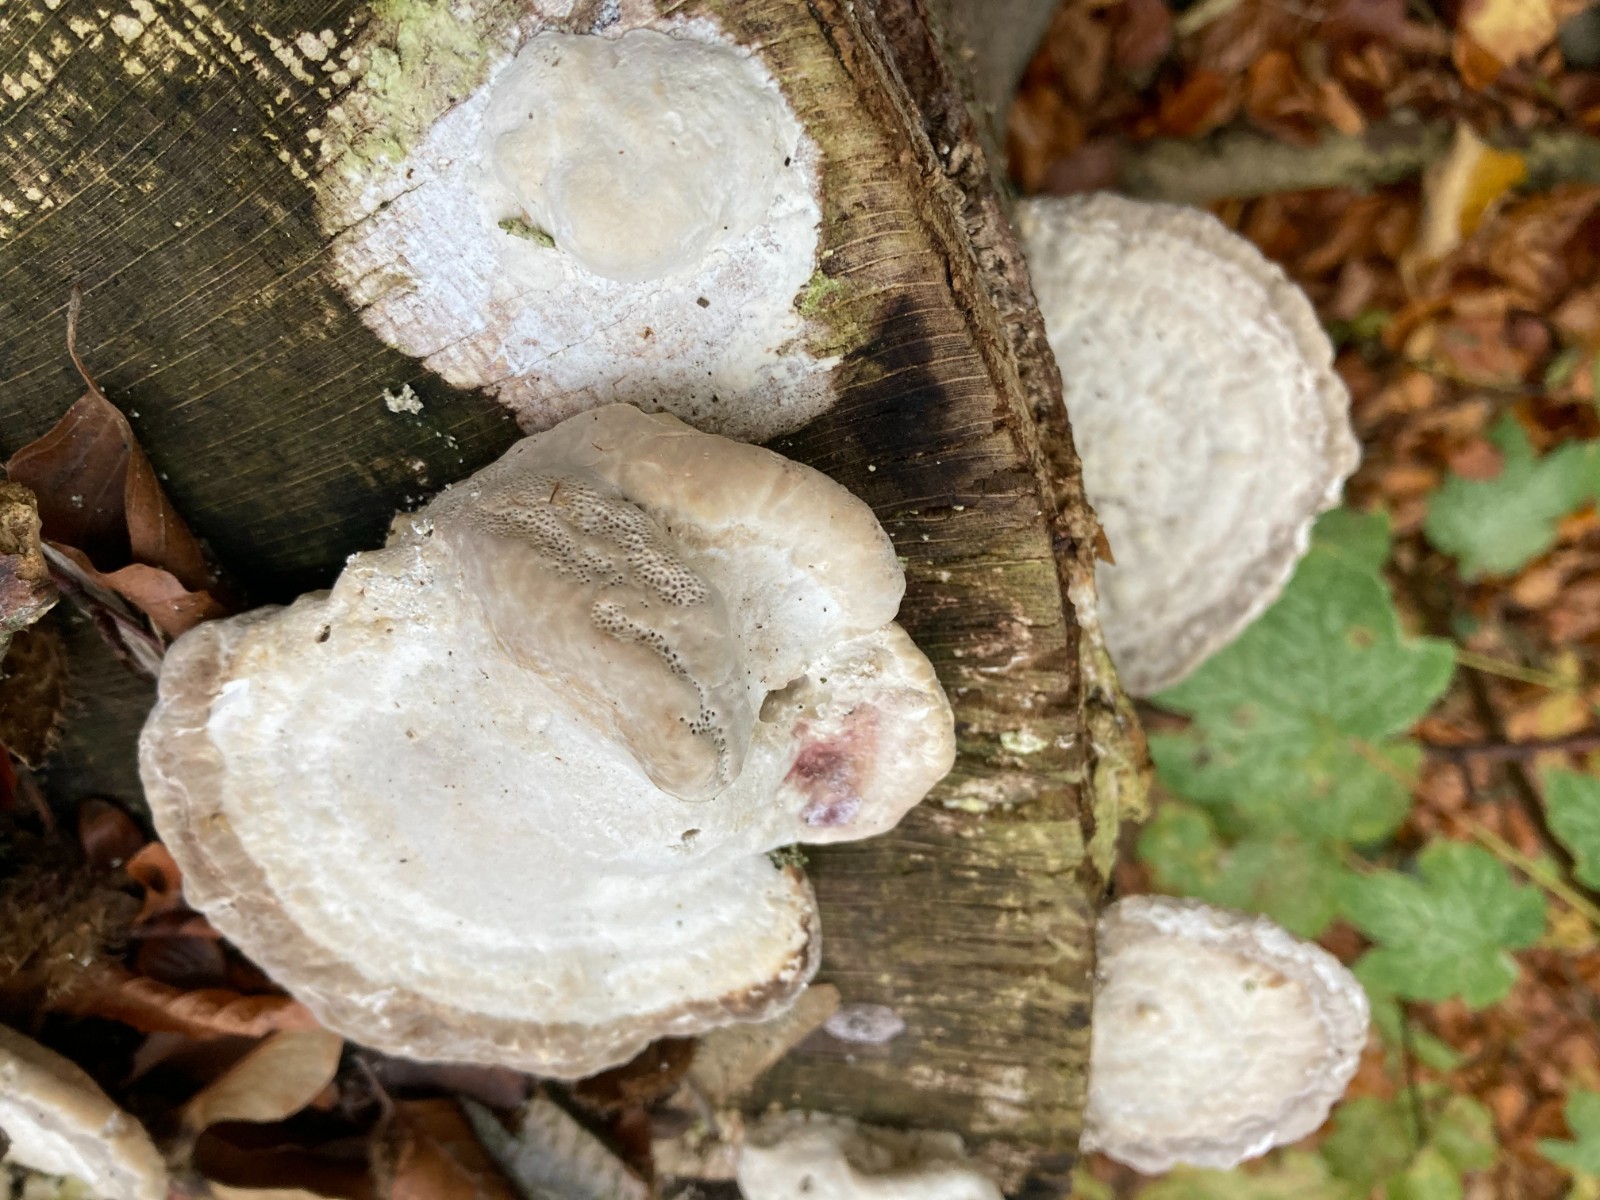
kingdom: Fungi
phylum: Basidiomycota
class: Agaricomycetes
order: Polyporales
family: Polyporaceae
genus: Trametes
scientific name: Trametes gibbosa
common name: puklet læderporesvamp
